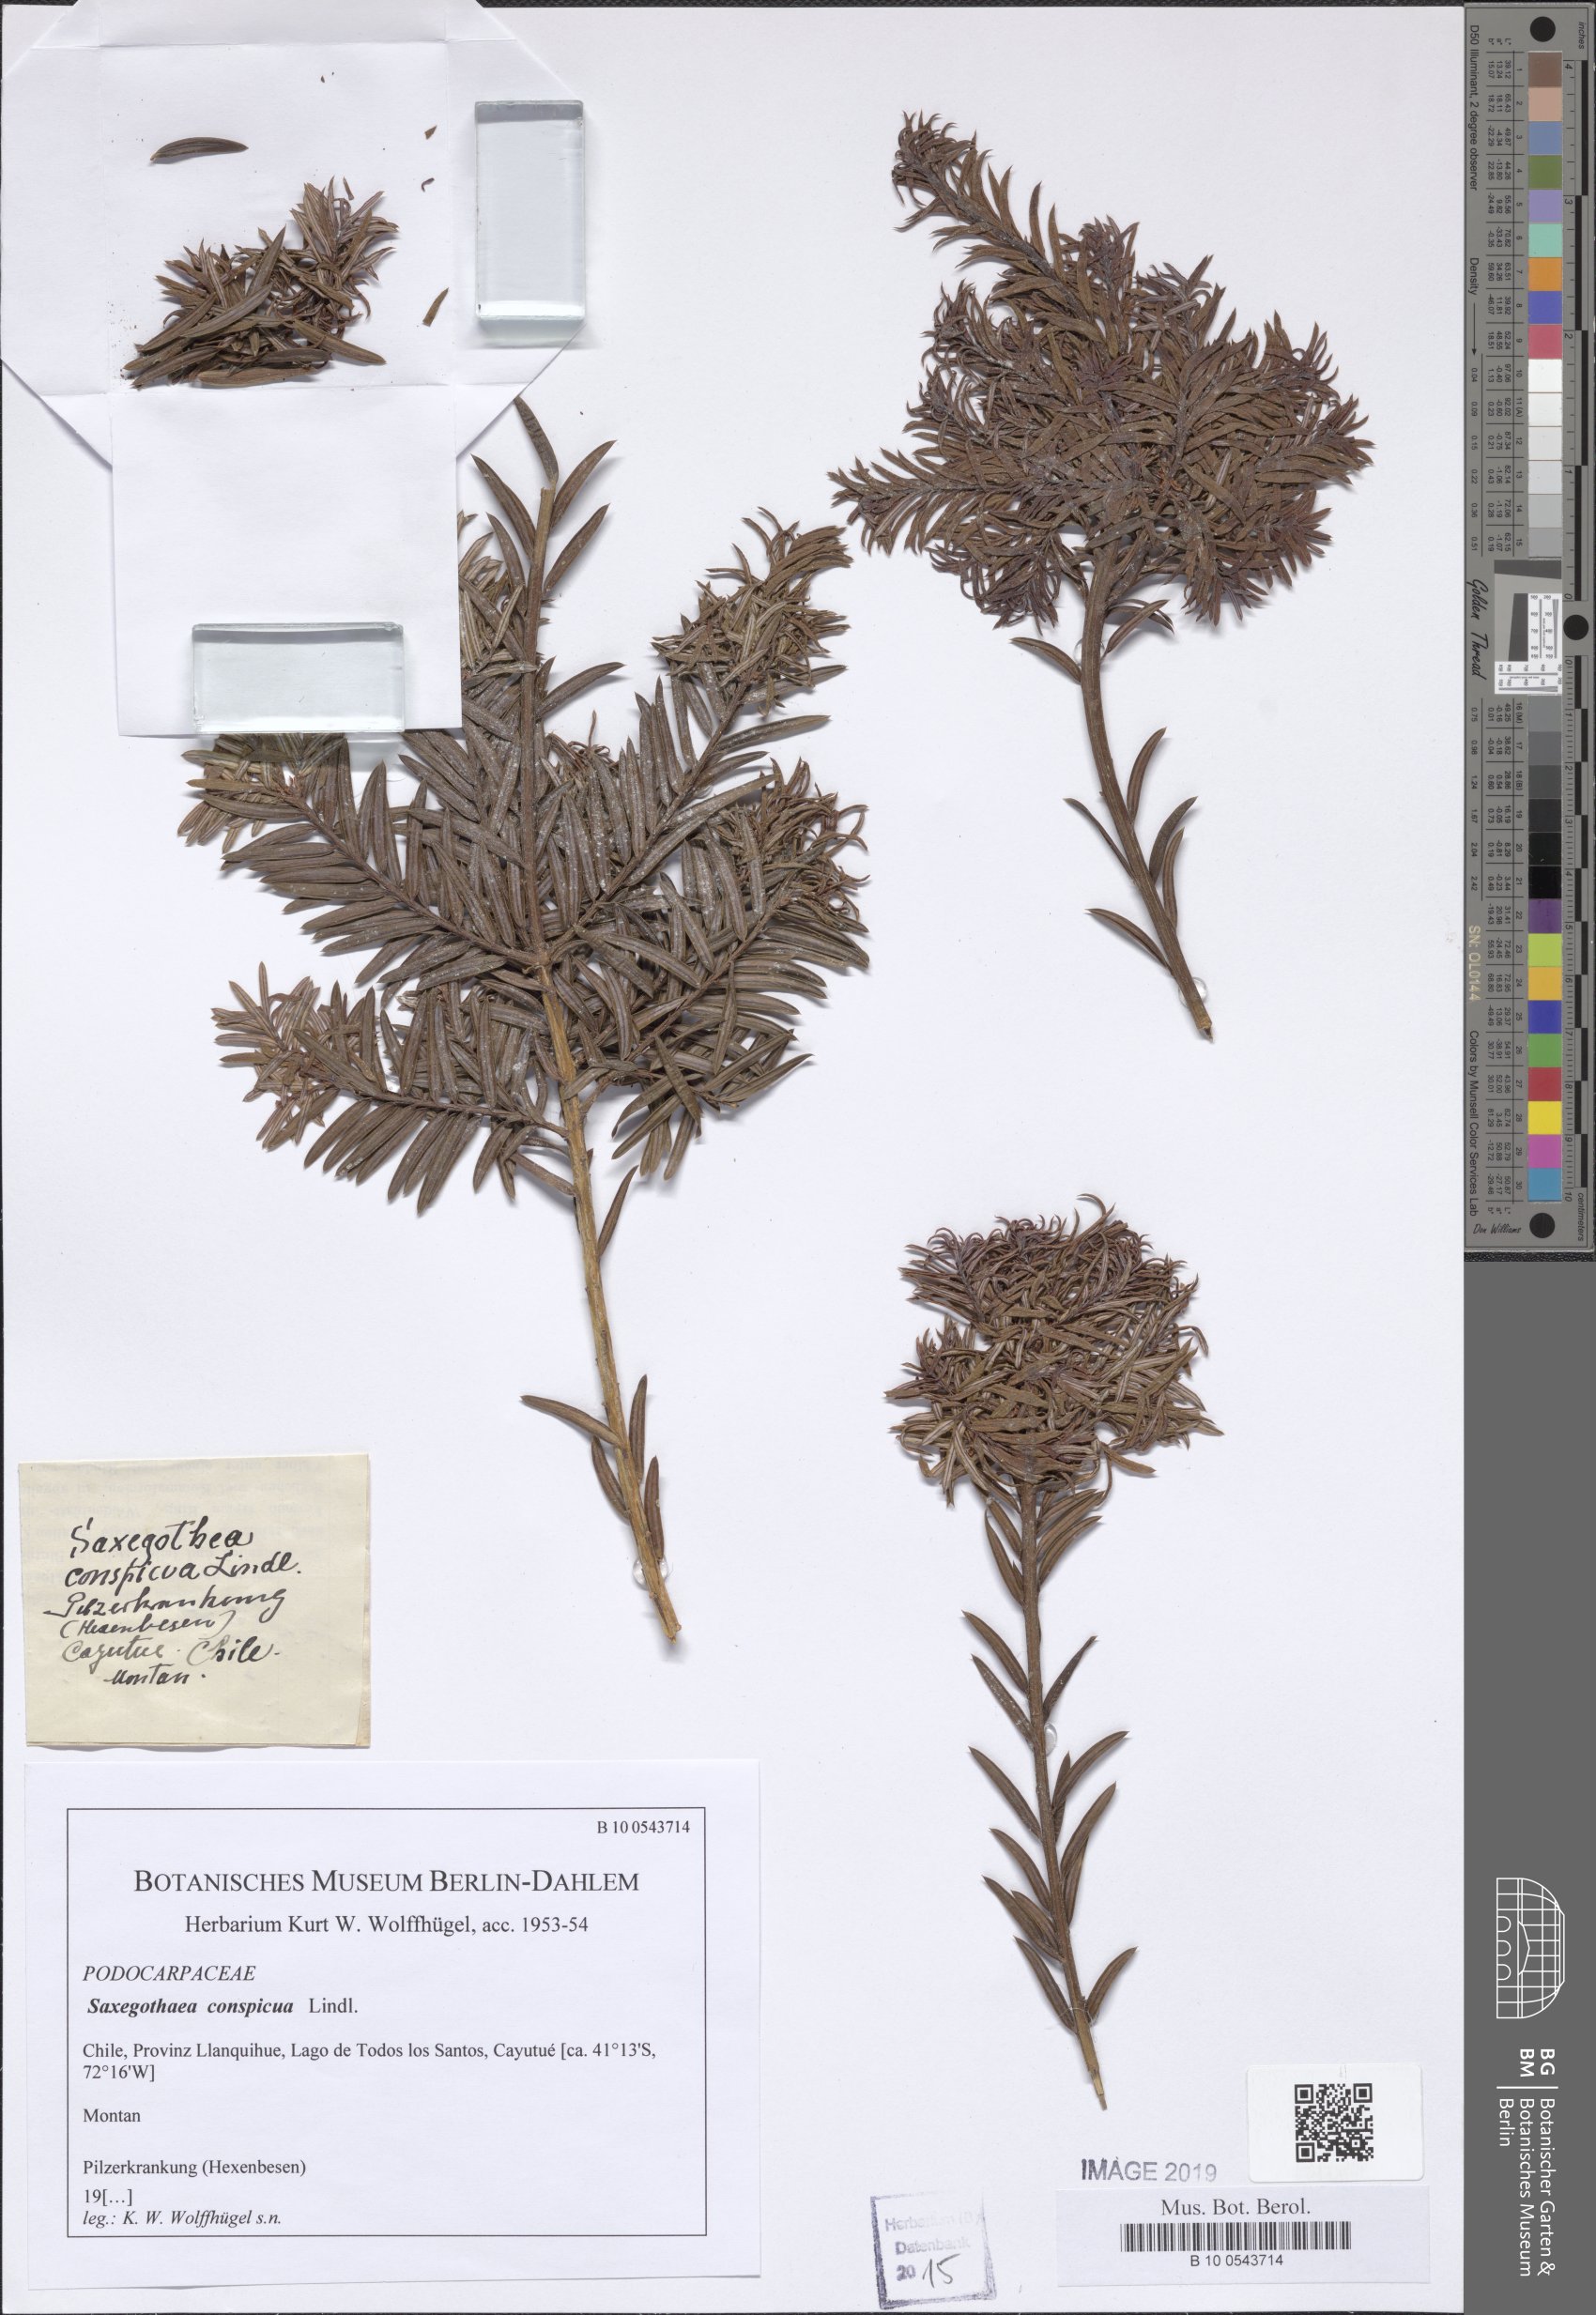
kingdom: Plantae
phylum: Tracheophyta
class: Pinopsida
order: Pinales
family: Podocarpaceae
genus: Saxegothaea
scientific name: Saxegothaea conspicua
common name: Prince albert's yew
